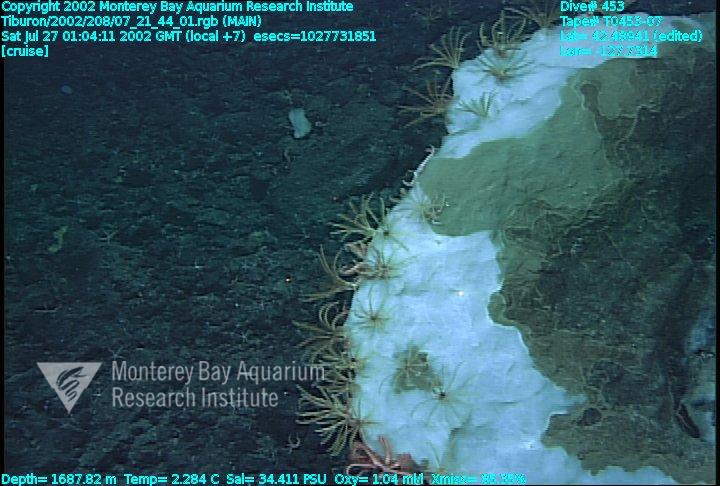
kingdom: Animalia
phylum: Porifera
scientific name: Porifera
